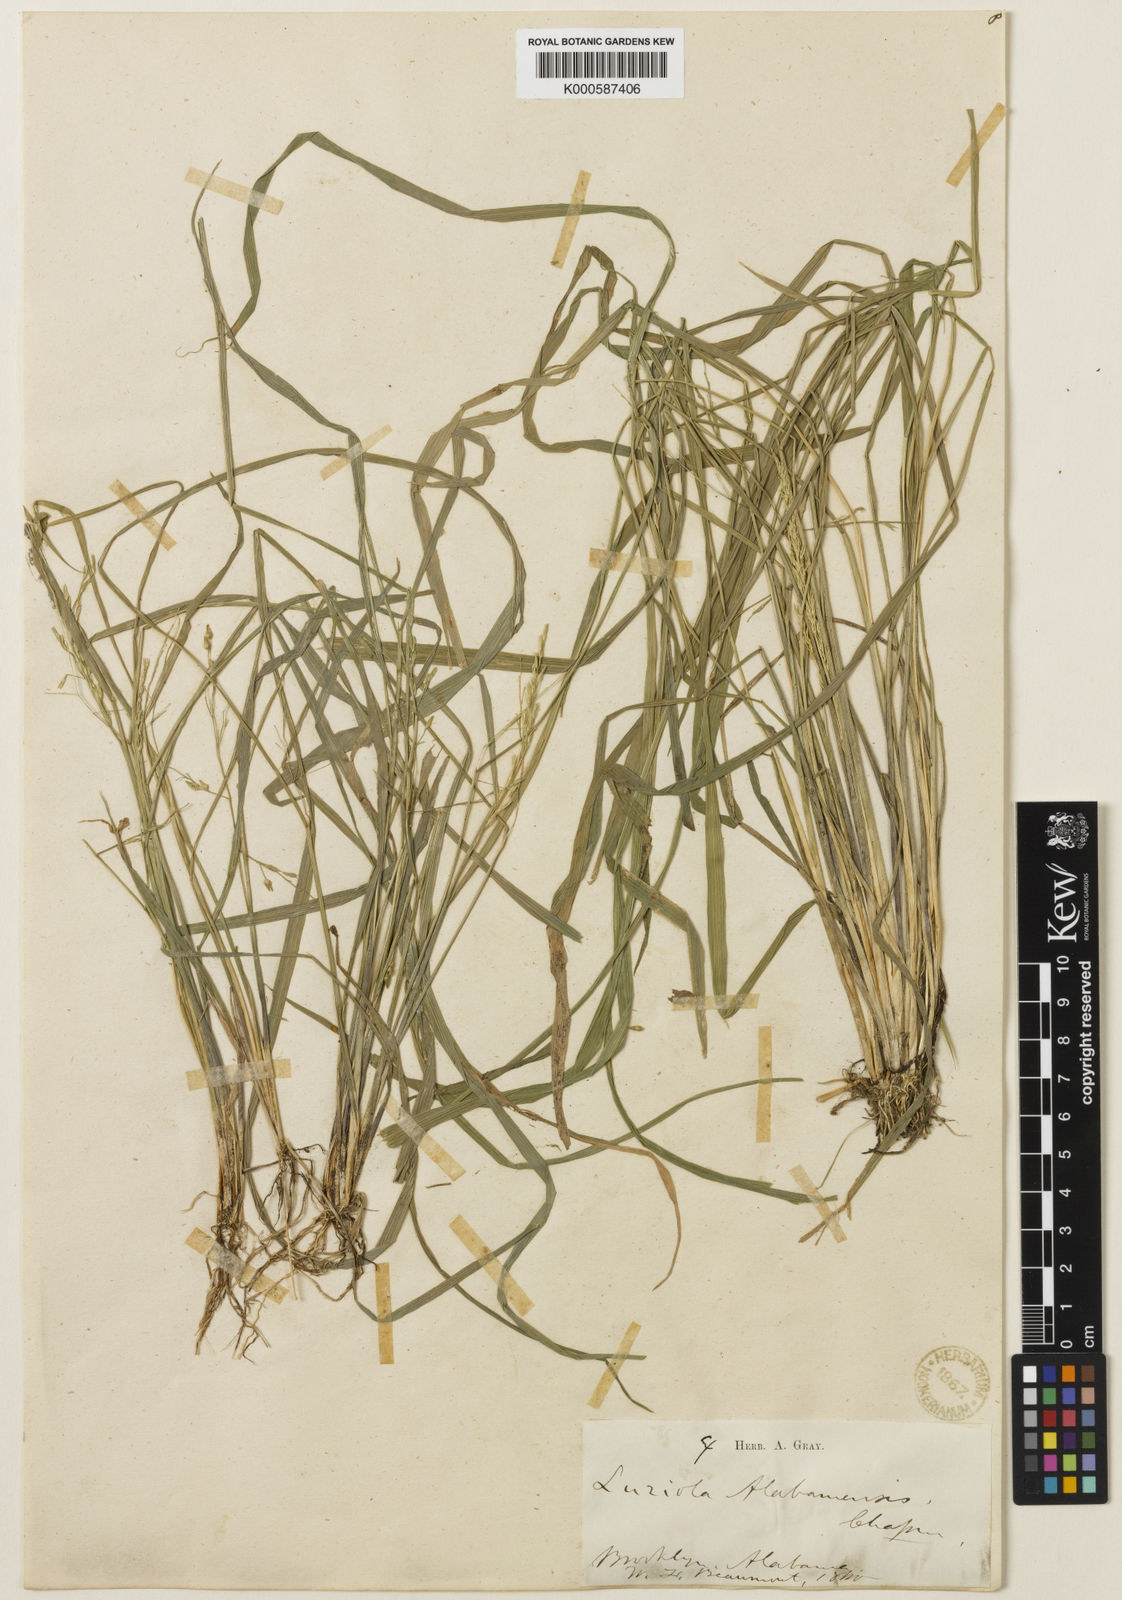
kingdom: Plantae
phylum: Tracheophyta
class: Liliopsida
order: Poales
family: Poaceae
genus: Luziola
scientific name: Luziola bahiensis
